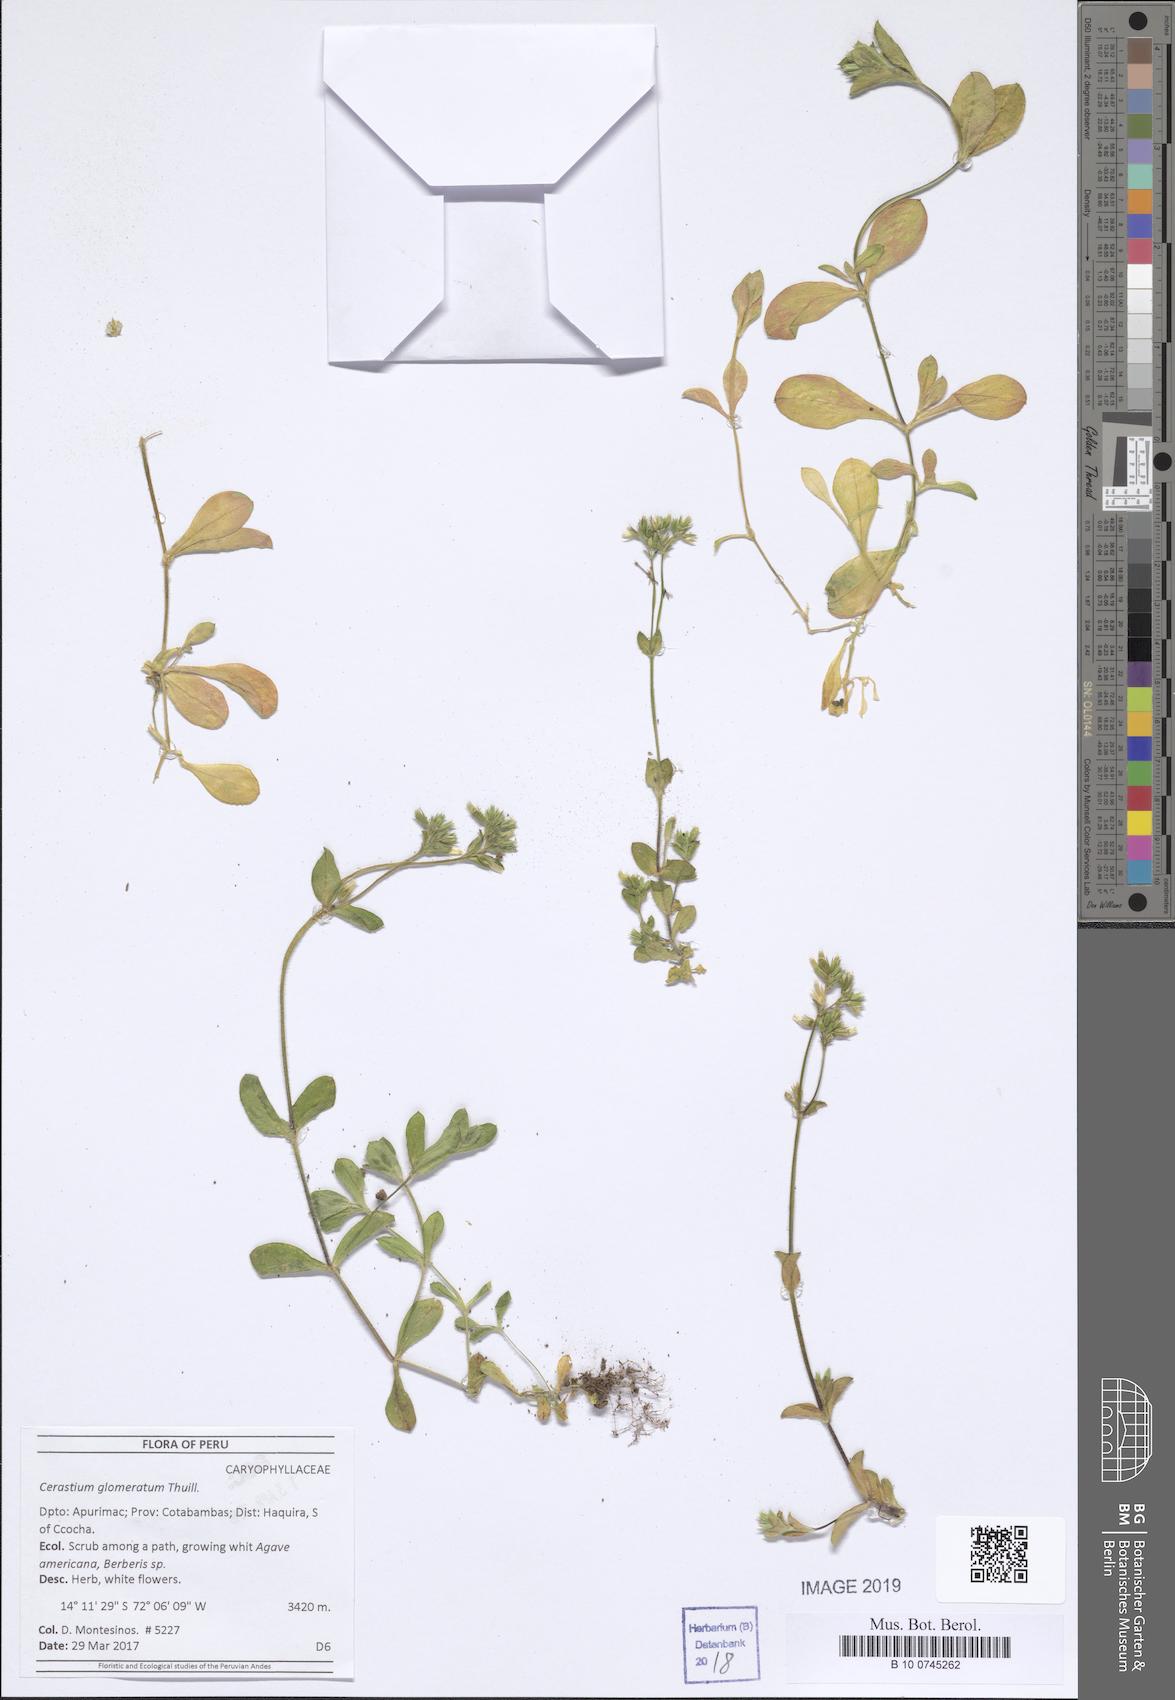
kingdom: Plantae
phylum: Tracheophyta
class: Magnoliopsida
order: Caryophyllales
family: Caryophyllaceae
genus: Cerastium
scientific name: Cerastium glomeratum
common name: Sticky chickweed
